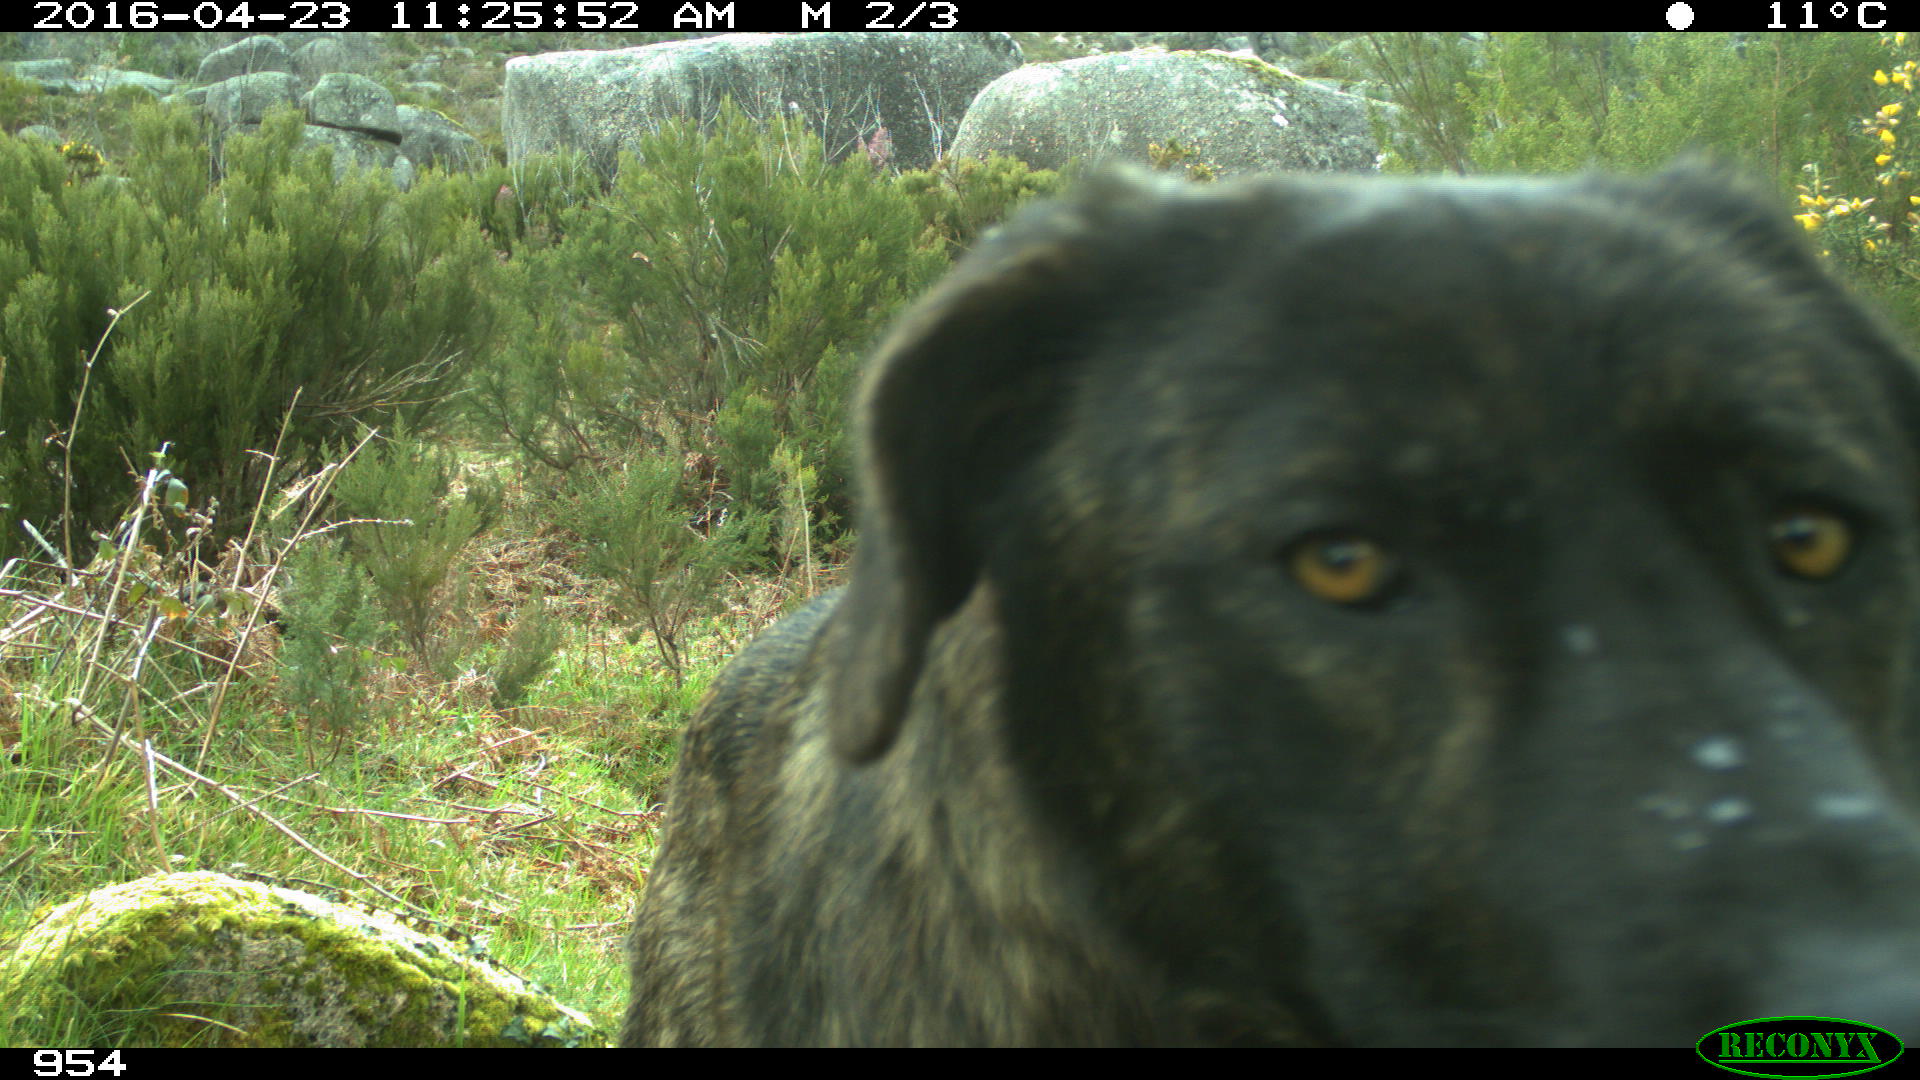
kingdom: Animalia
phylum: Chordata
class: Mammalia
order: Carnivora
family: Canidae
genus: Canis
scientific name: Canis lupus
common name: Gray wolf
